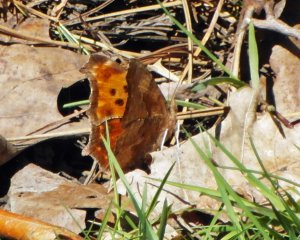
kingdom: Animalia
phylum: Arthropoda
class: Insecta
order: Lepidoptera
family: Nymphalidae
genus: Polygonia
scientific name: Polygonia comma
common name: Eastern Comma
